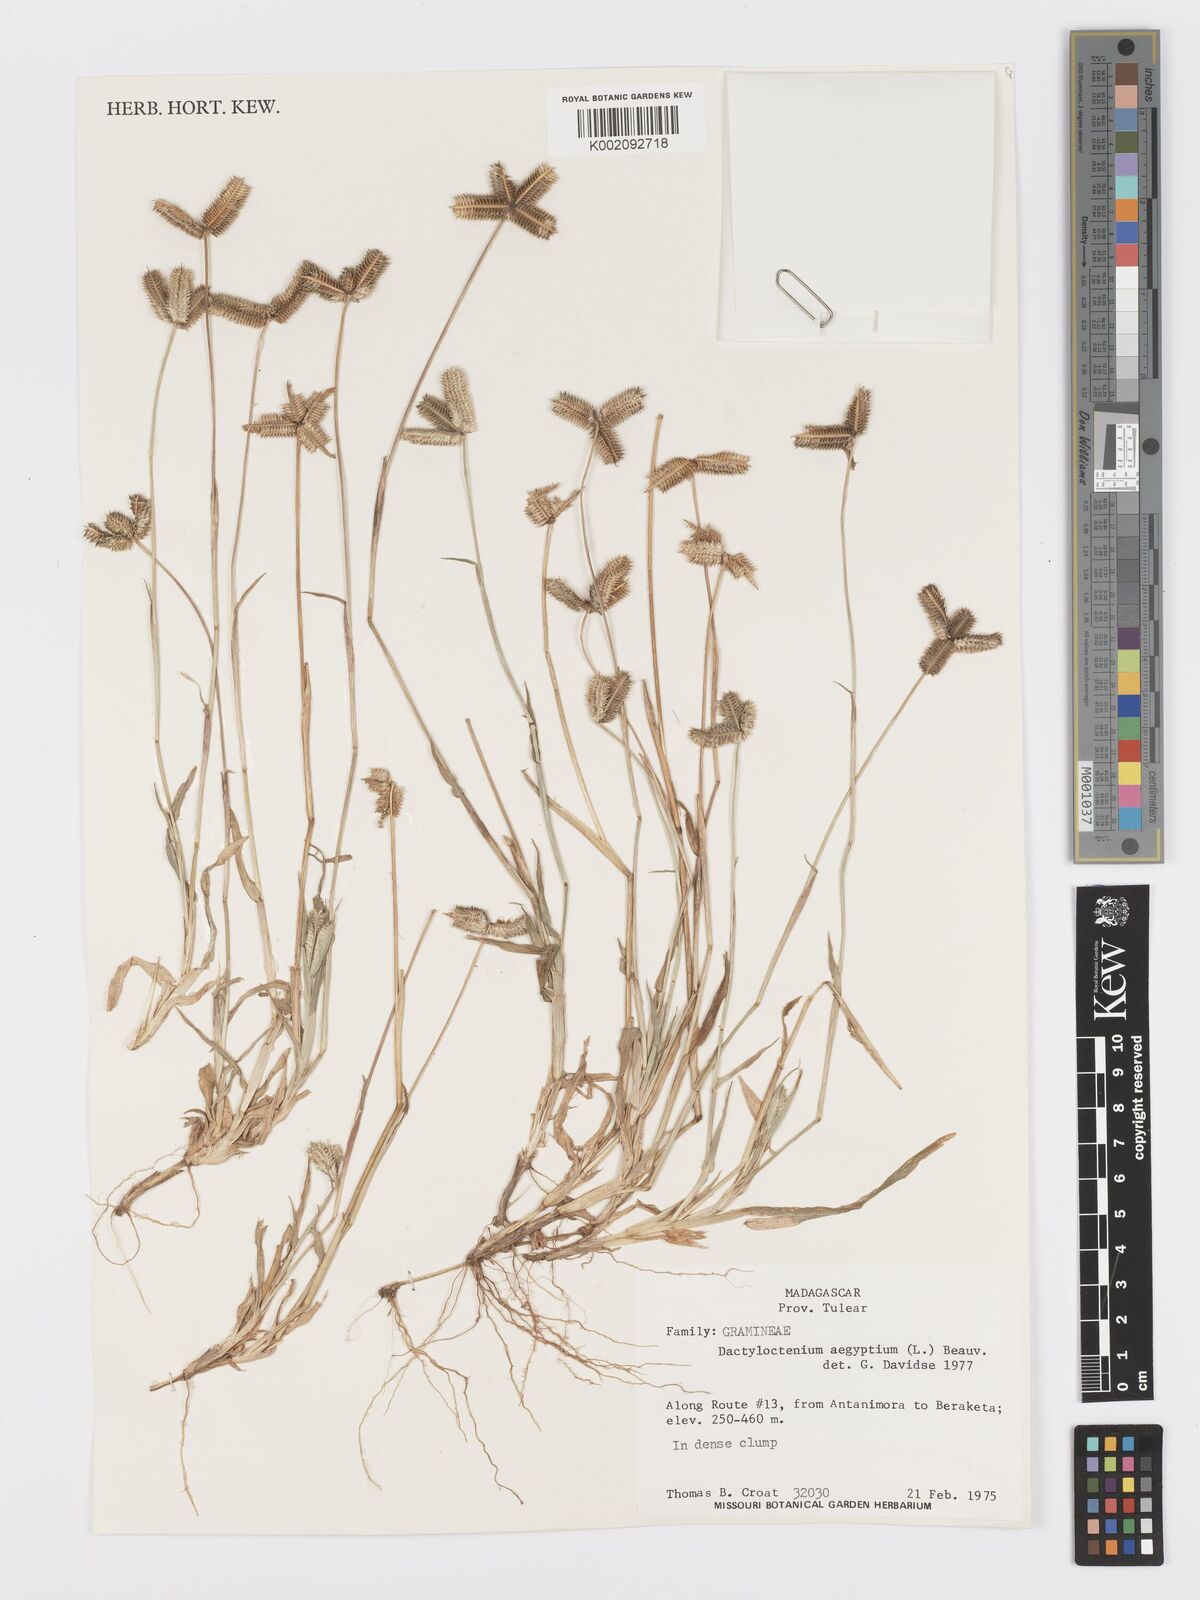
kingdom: Plantae
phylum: Tracheophyta
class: Liliopsida
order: Poales
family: Poaceae
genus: Dactyloctenium
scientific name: Dactyloctenium aegyptium
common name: Egyptian grass
